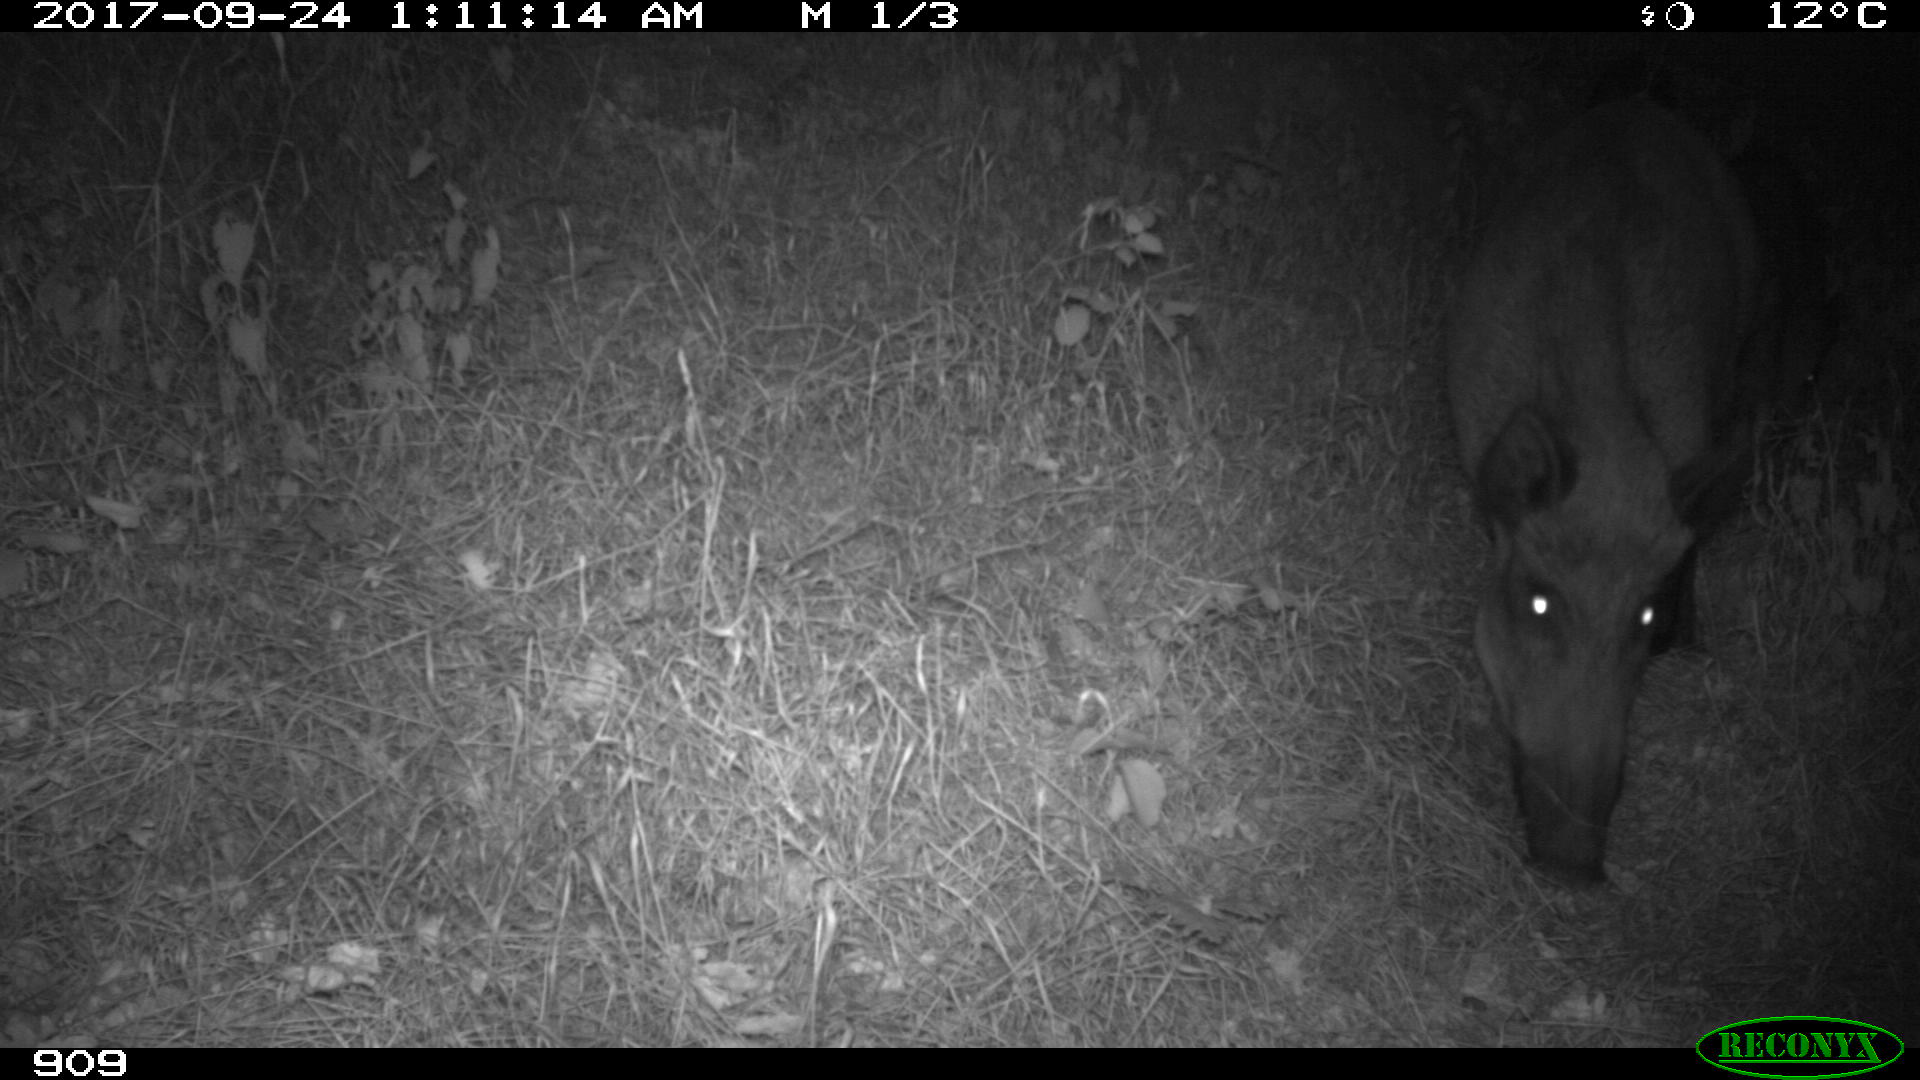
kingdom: Animalia
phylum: Chordata
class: Mammalia
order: Artiodactyla
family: Suidae
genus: Sus
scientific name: Sus scrofa
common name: Wild boar
